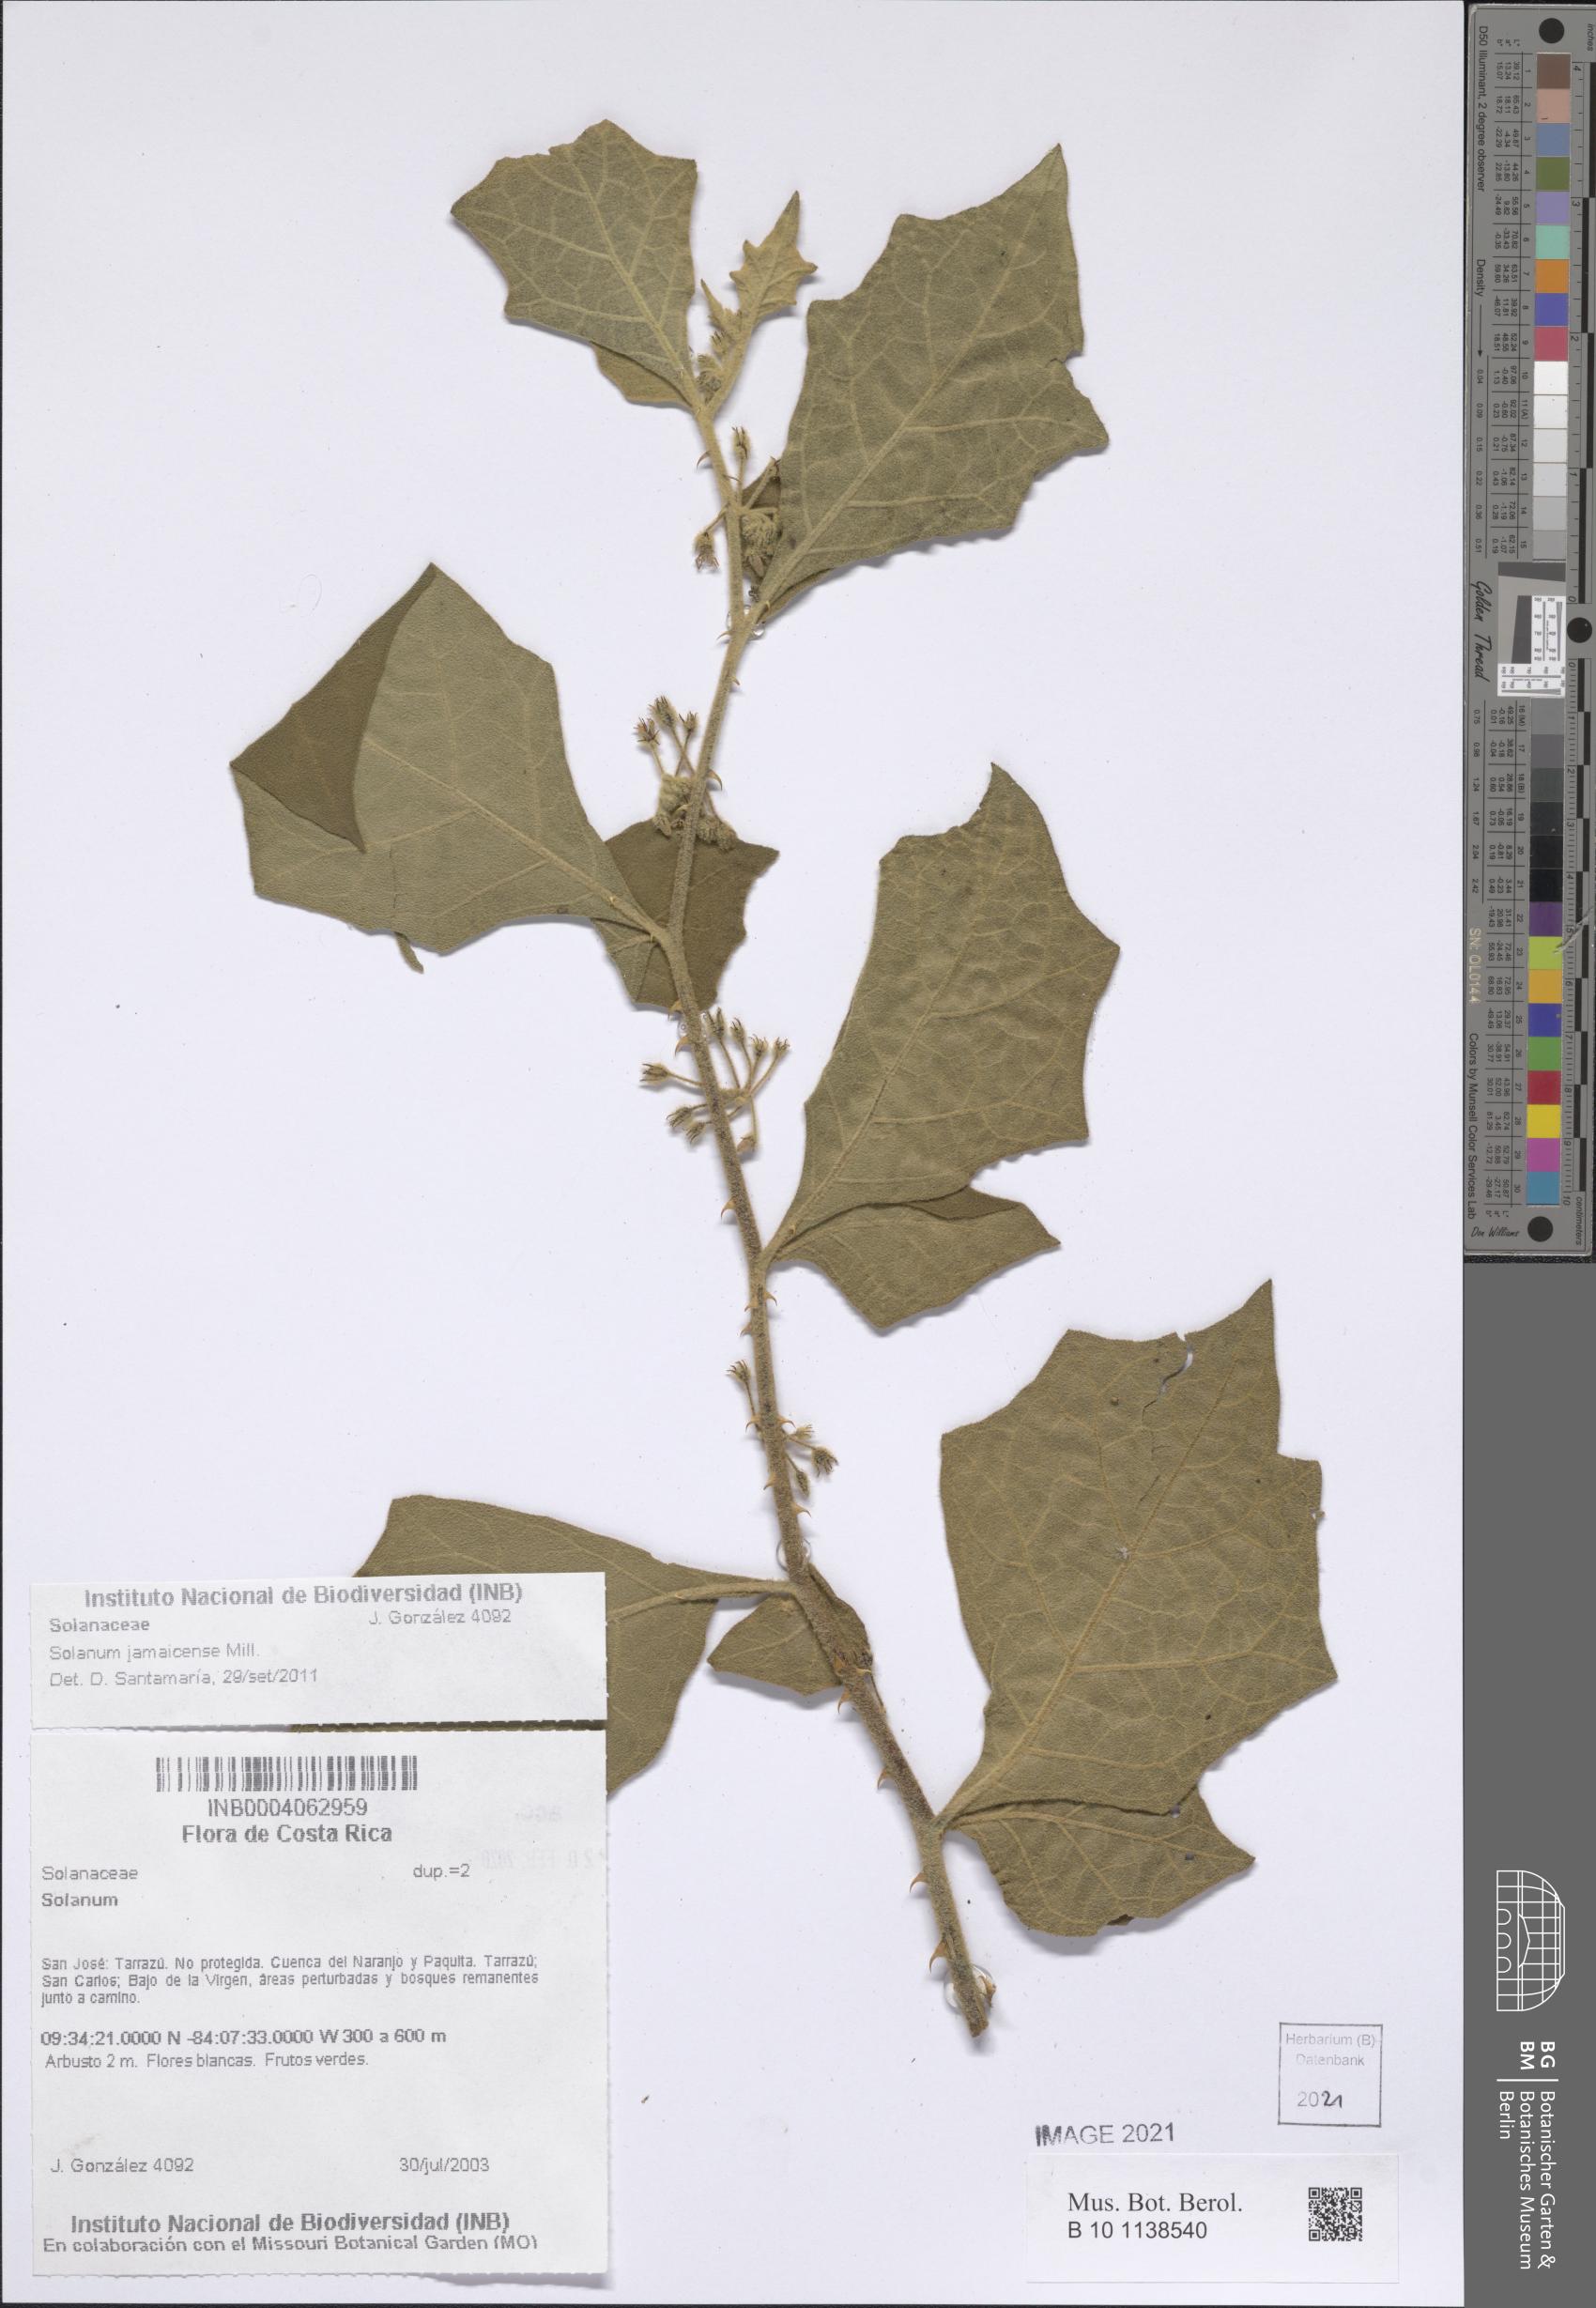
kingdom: Plantae
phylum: Tracheophyta
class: Magnoliopsida
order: Solanales
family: Solanaceae
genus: Solanum
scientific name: Solanum jamaicense
